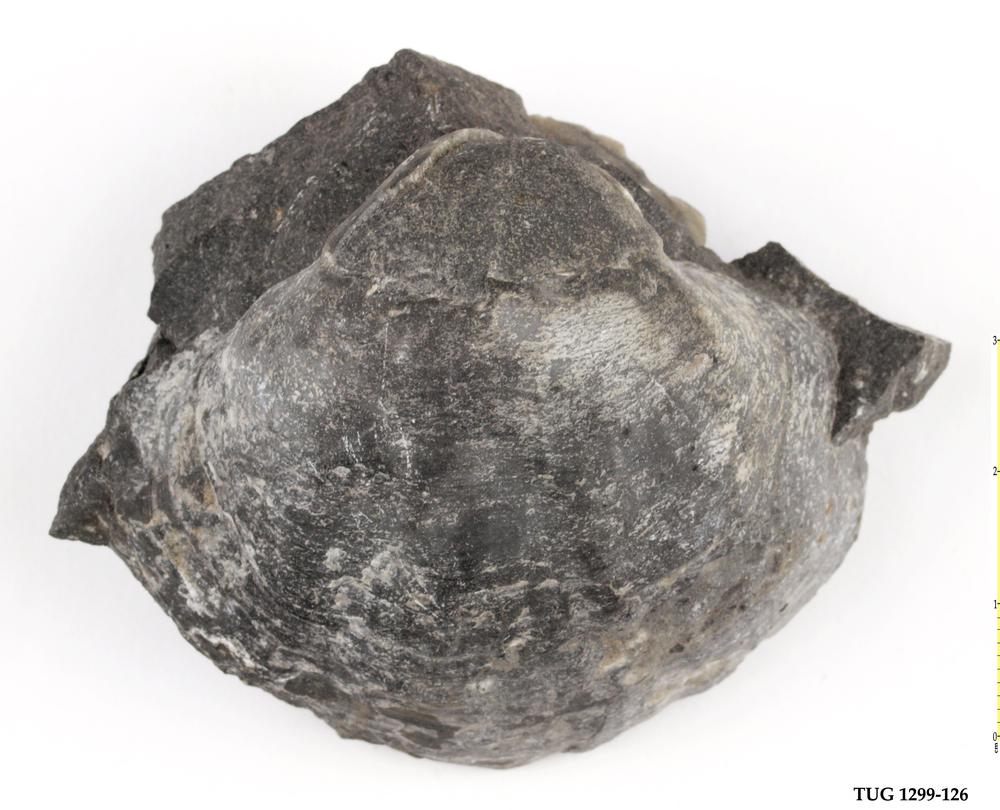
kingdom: Animalia
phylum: Brachiopoda
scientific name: Brachiopoda
